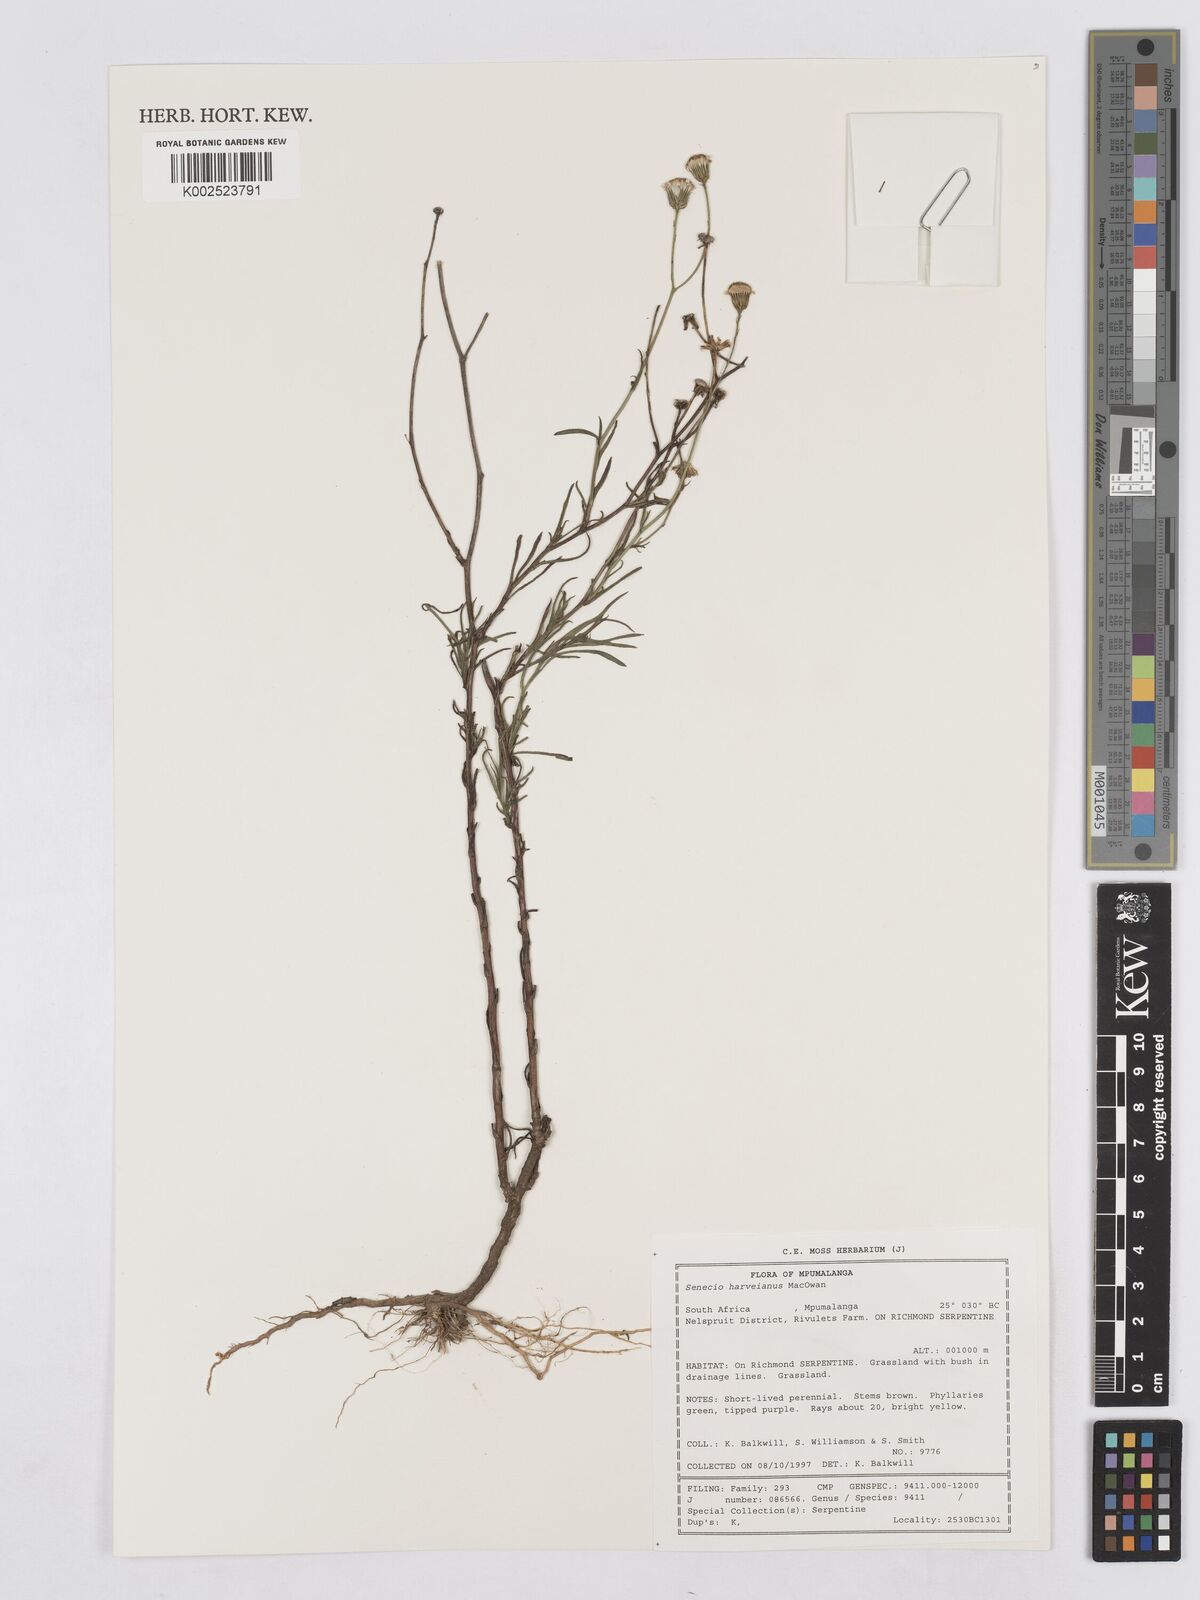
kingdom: Plantae
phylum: Tracheophyta
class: Magnoliopsida
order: Asterales
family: Asteraceae
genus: Senecio
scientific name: Senecio harveyanus
